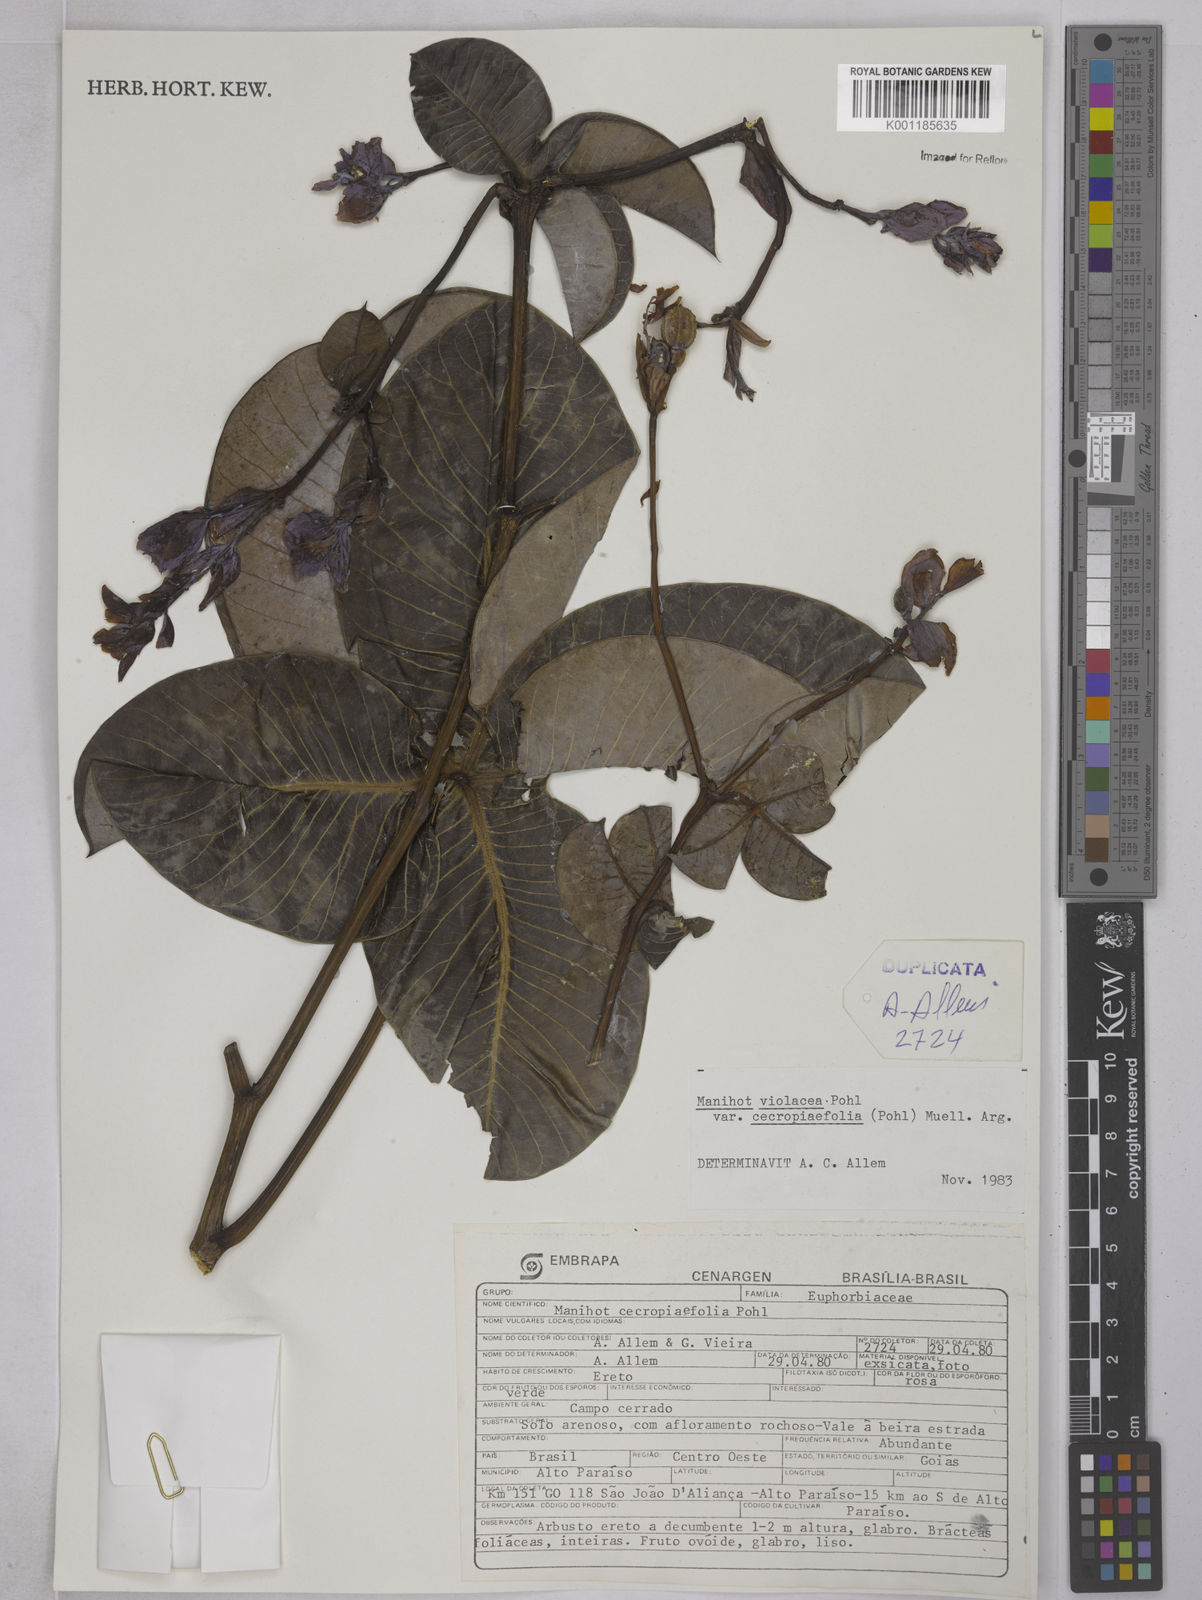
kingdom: Plantae
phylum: Tracheophyta
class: Magnoliopsida
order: Malpighiales
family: Euphorbiaceae
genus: Manihot
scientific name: Manihot cecropiifolia
